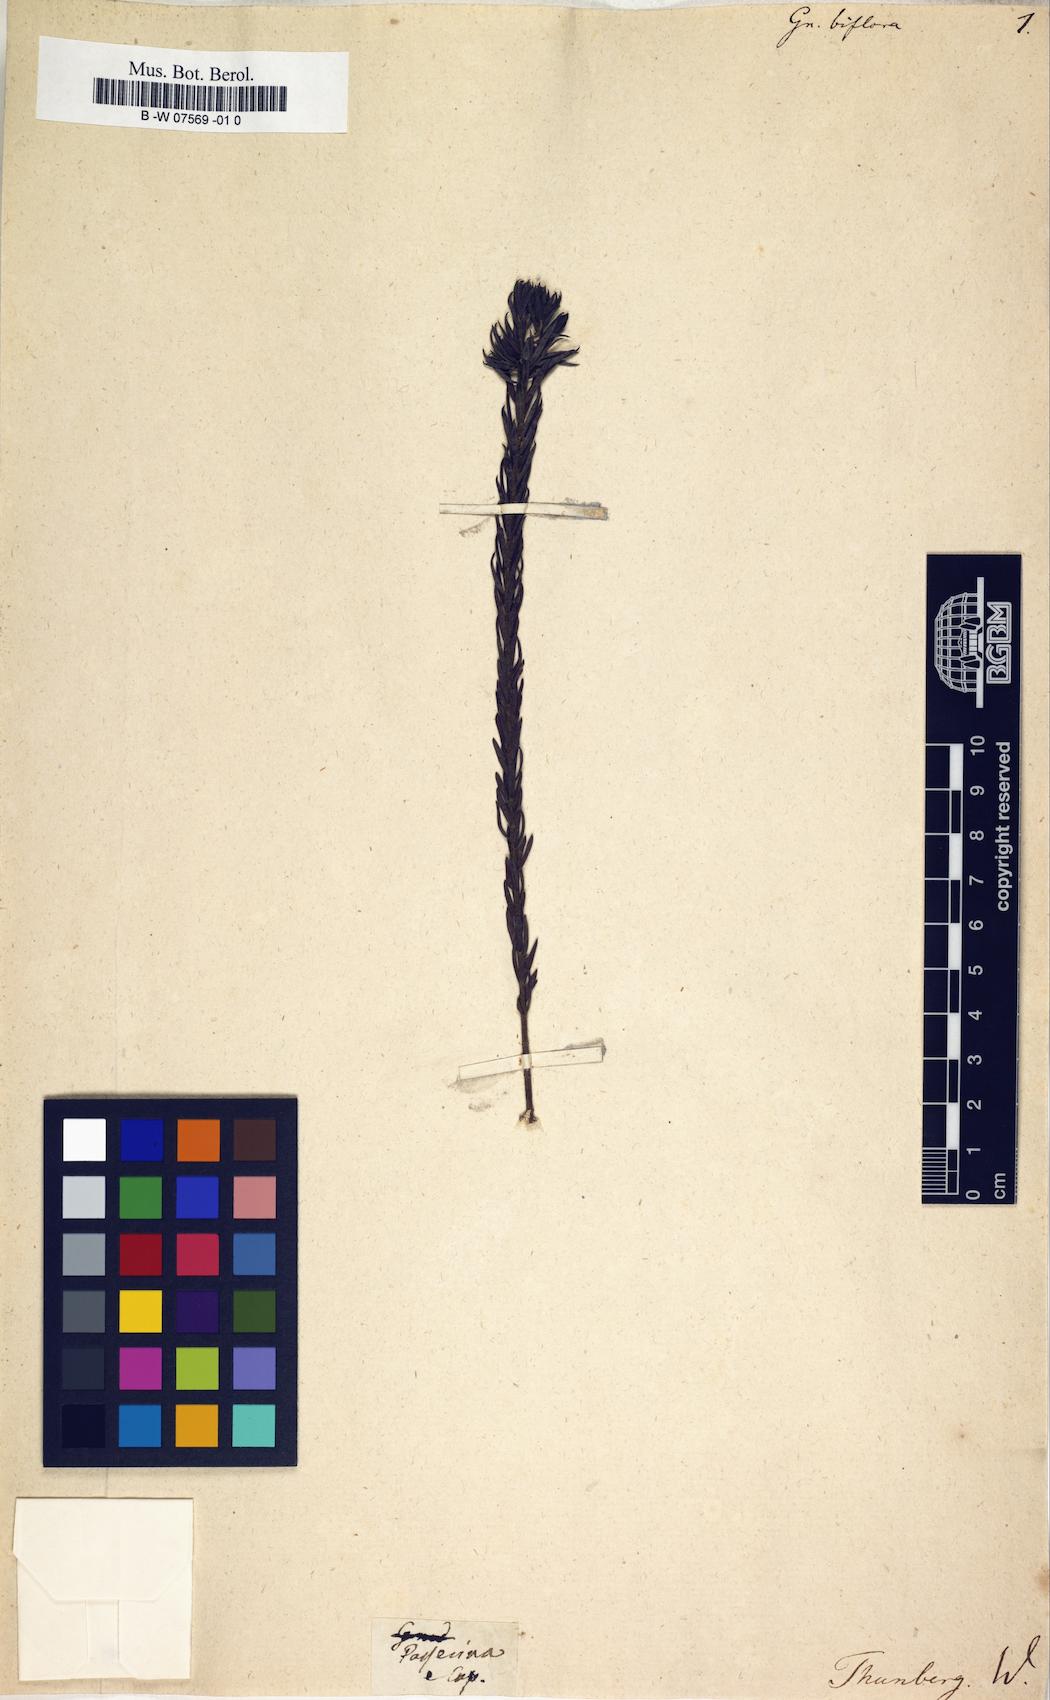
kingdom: Plantae
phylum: Tracheophyta
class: Magnoliopsida
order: Malvales
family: Thymelaeaceae
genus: Gnidia
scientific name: Gnidia
